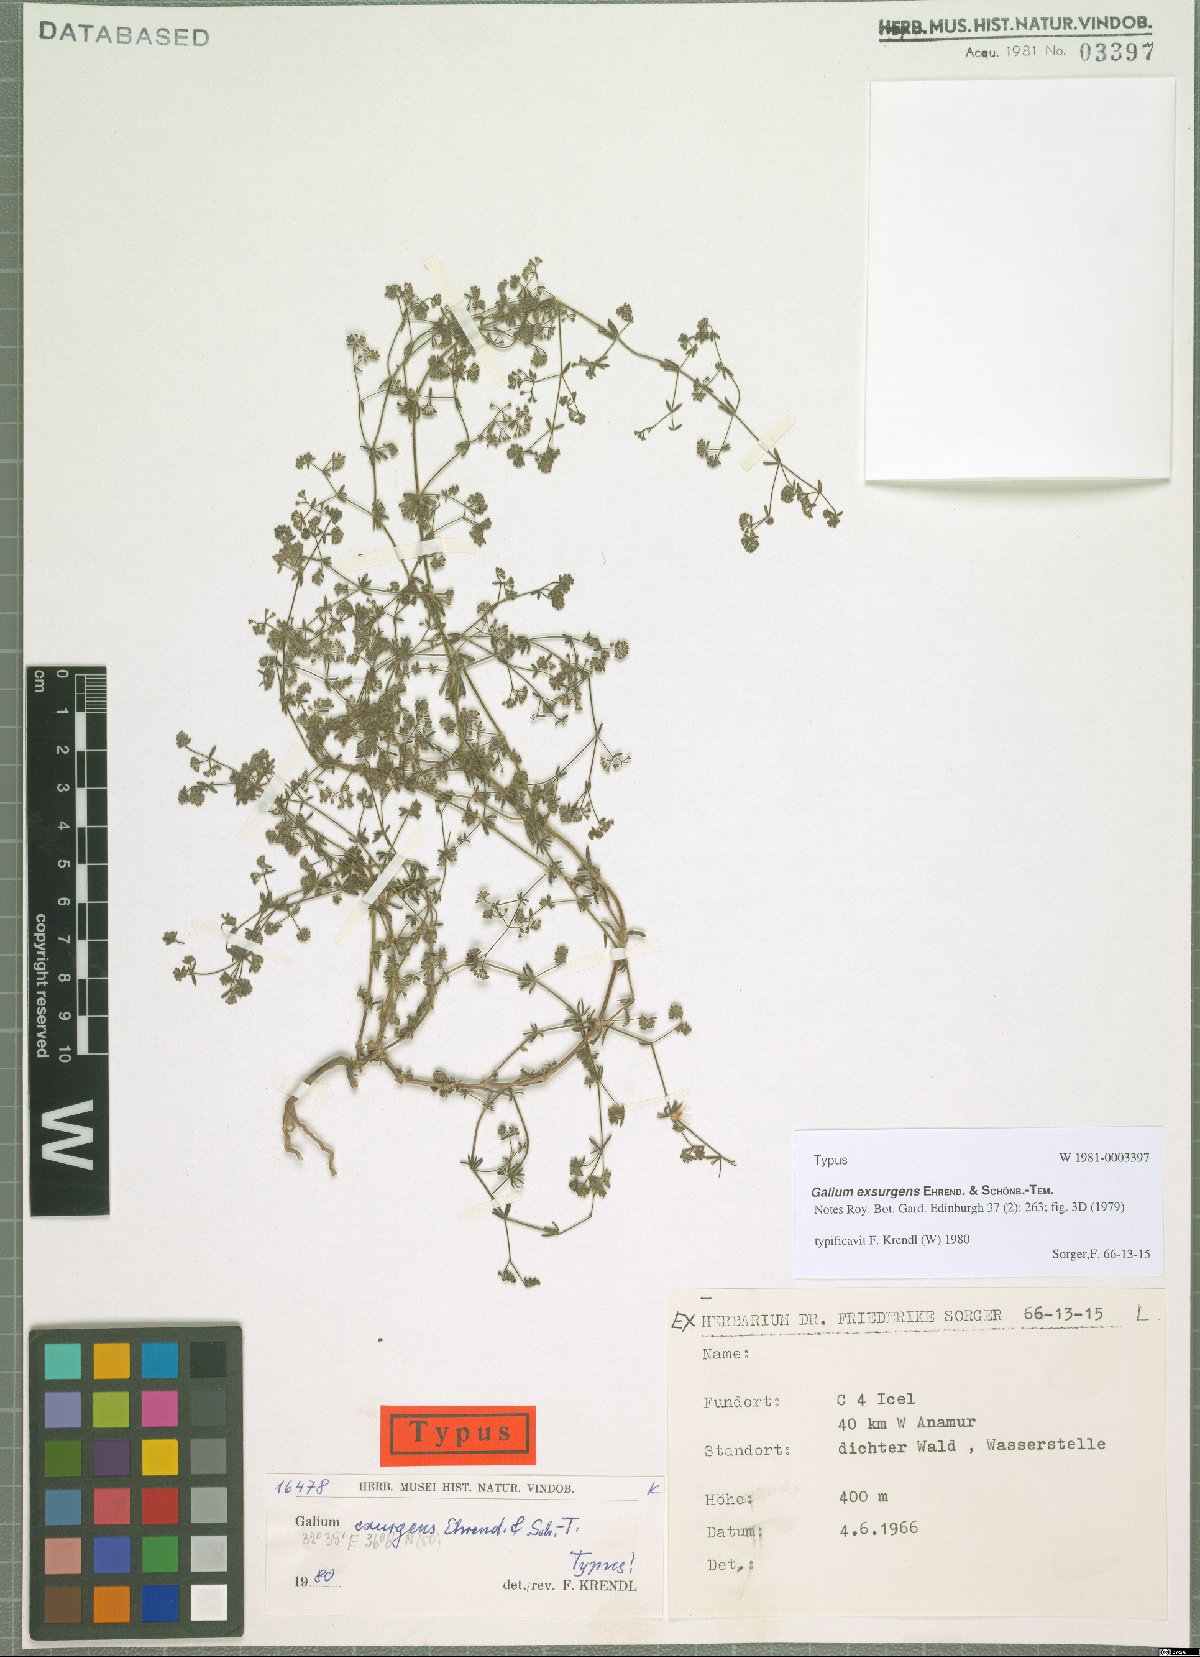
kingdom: Plantae
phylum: Tracheophyta
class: Magnoliopsida
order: Gentianales
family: Rubiaceae
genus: Galium
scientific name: Galium exsurgens
